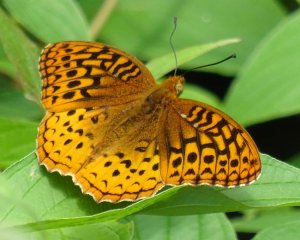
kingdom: Animalia
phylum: Arthropoda
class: Insecta
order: Lepidoptera
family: Nymphalidae
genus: Speyeria
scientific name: Speyeria cybele
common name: Great Spangled Fritillary
